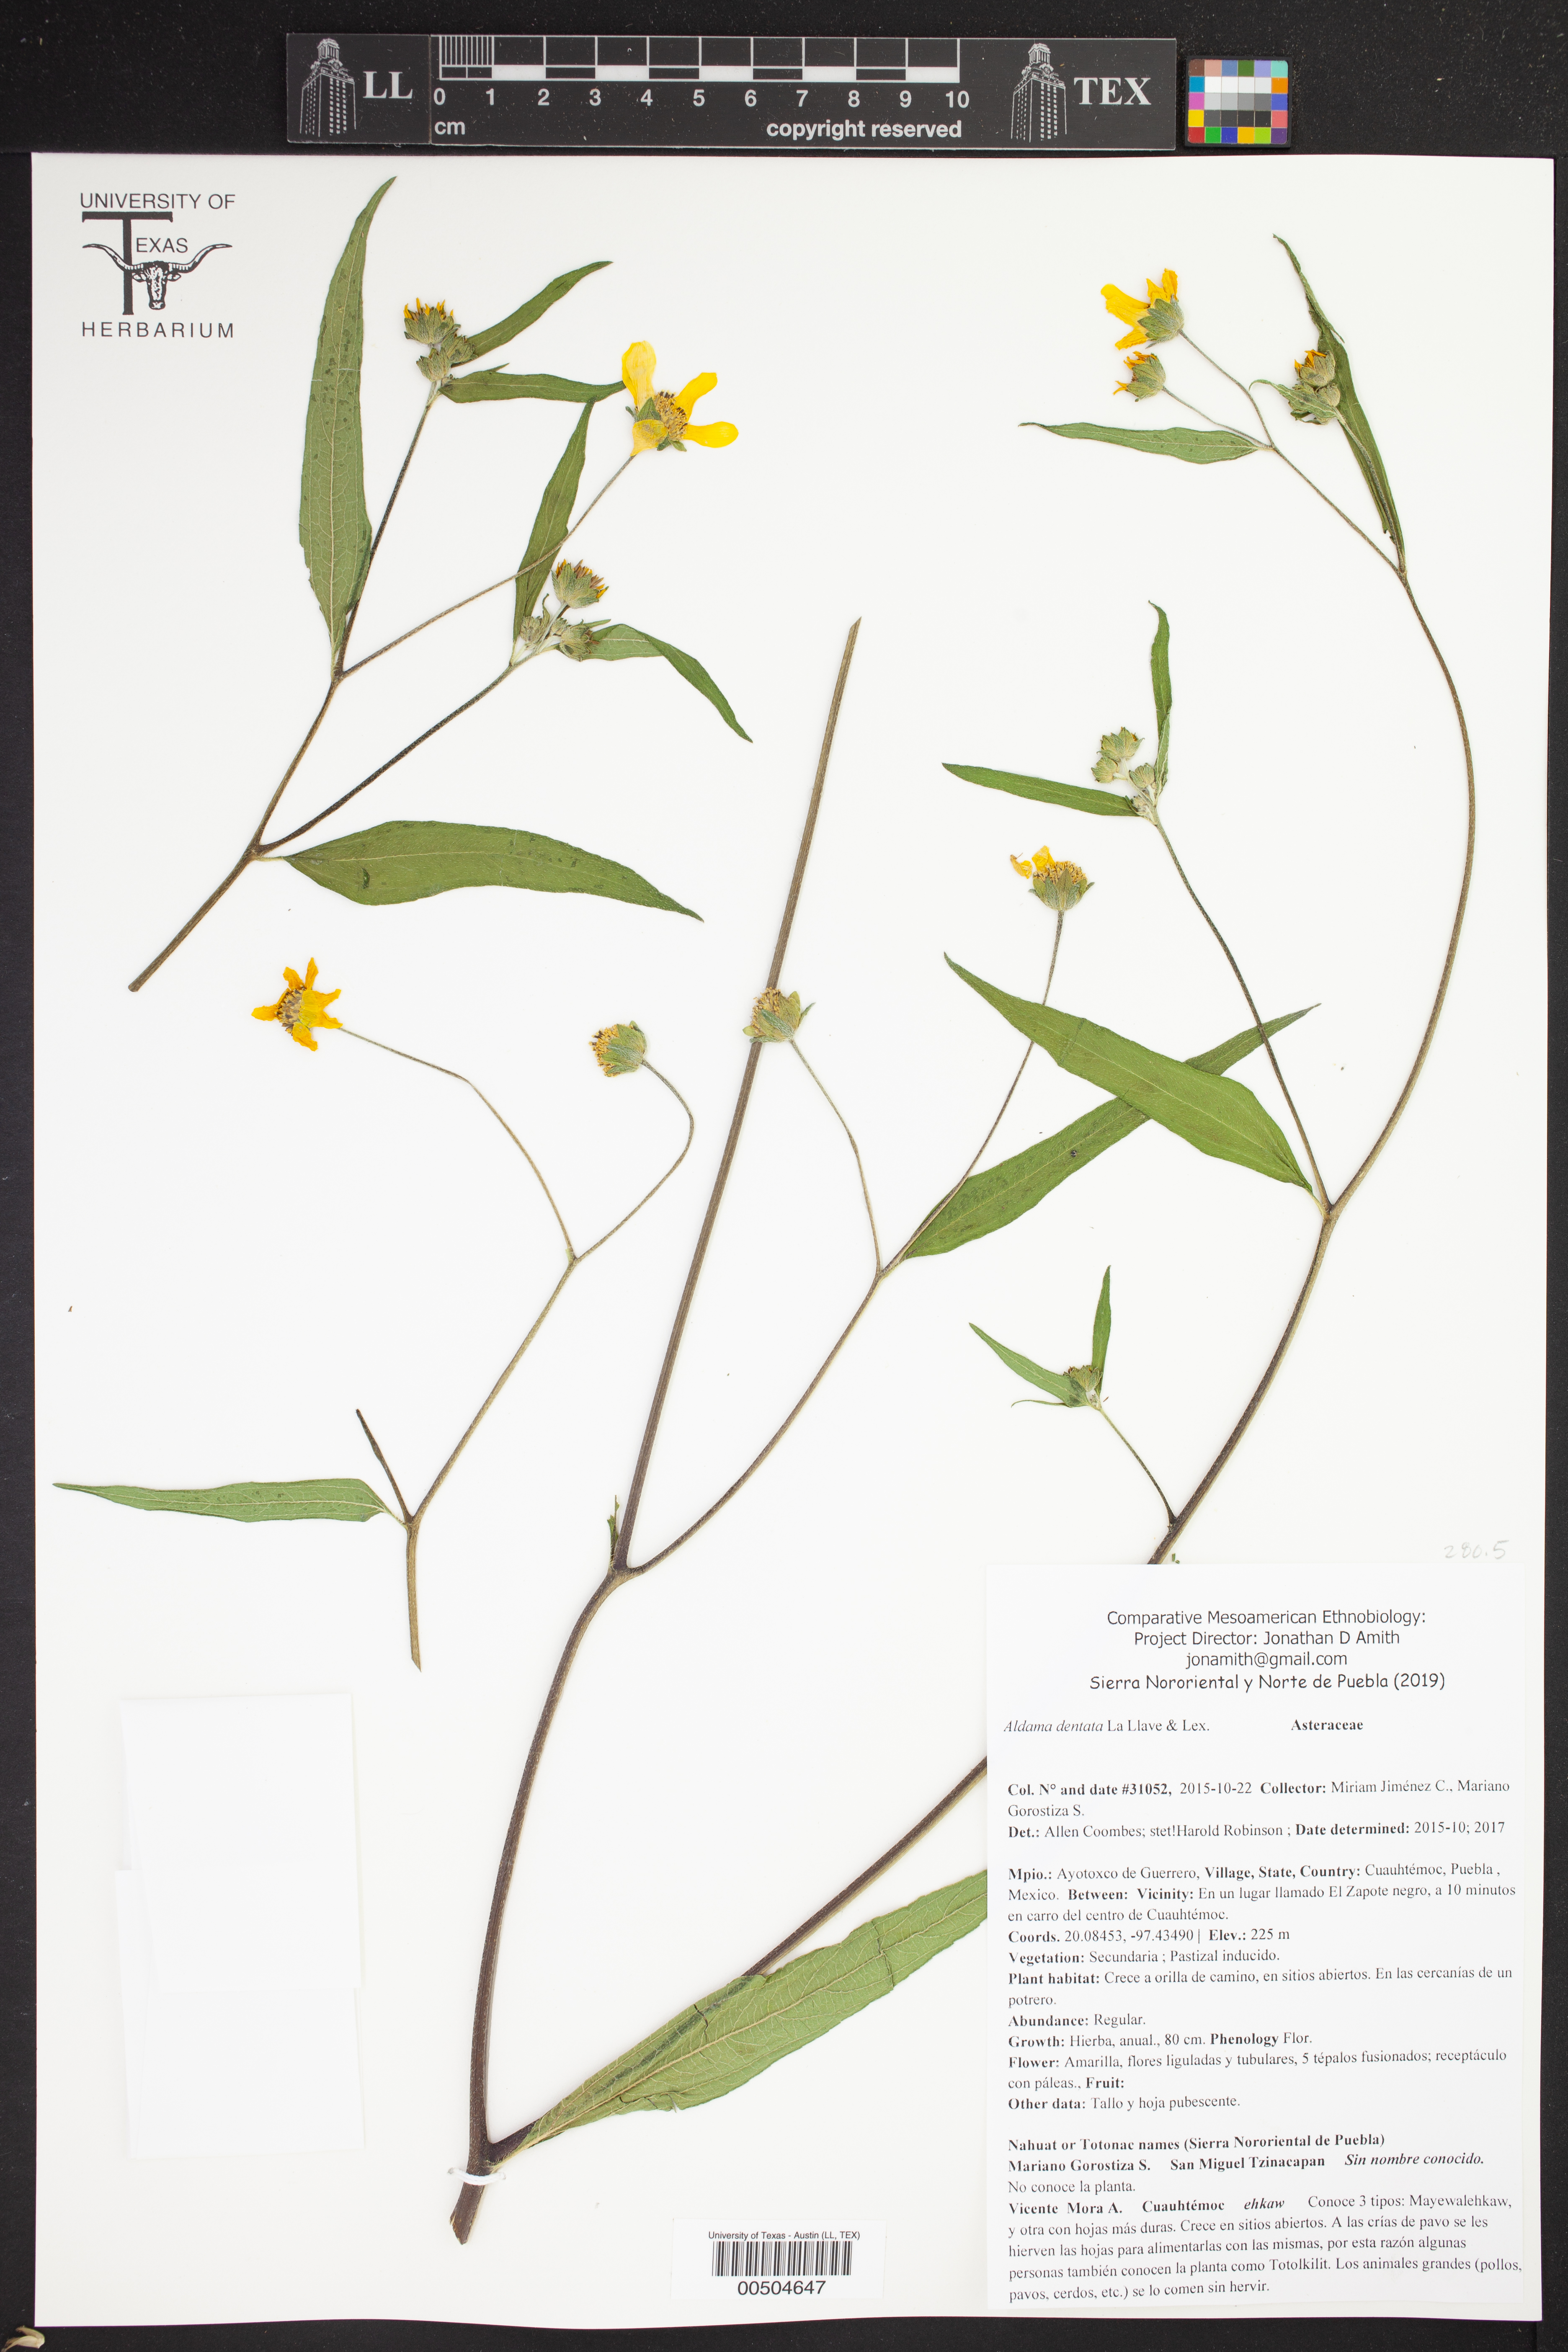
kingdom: Plantae
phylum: Tracheophyta
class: Magnoliopsida
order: Asterales
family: Asteraceae
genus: Aldama
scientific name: Aldama dentata
